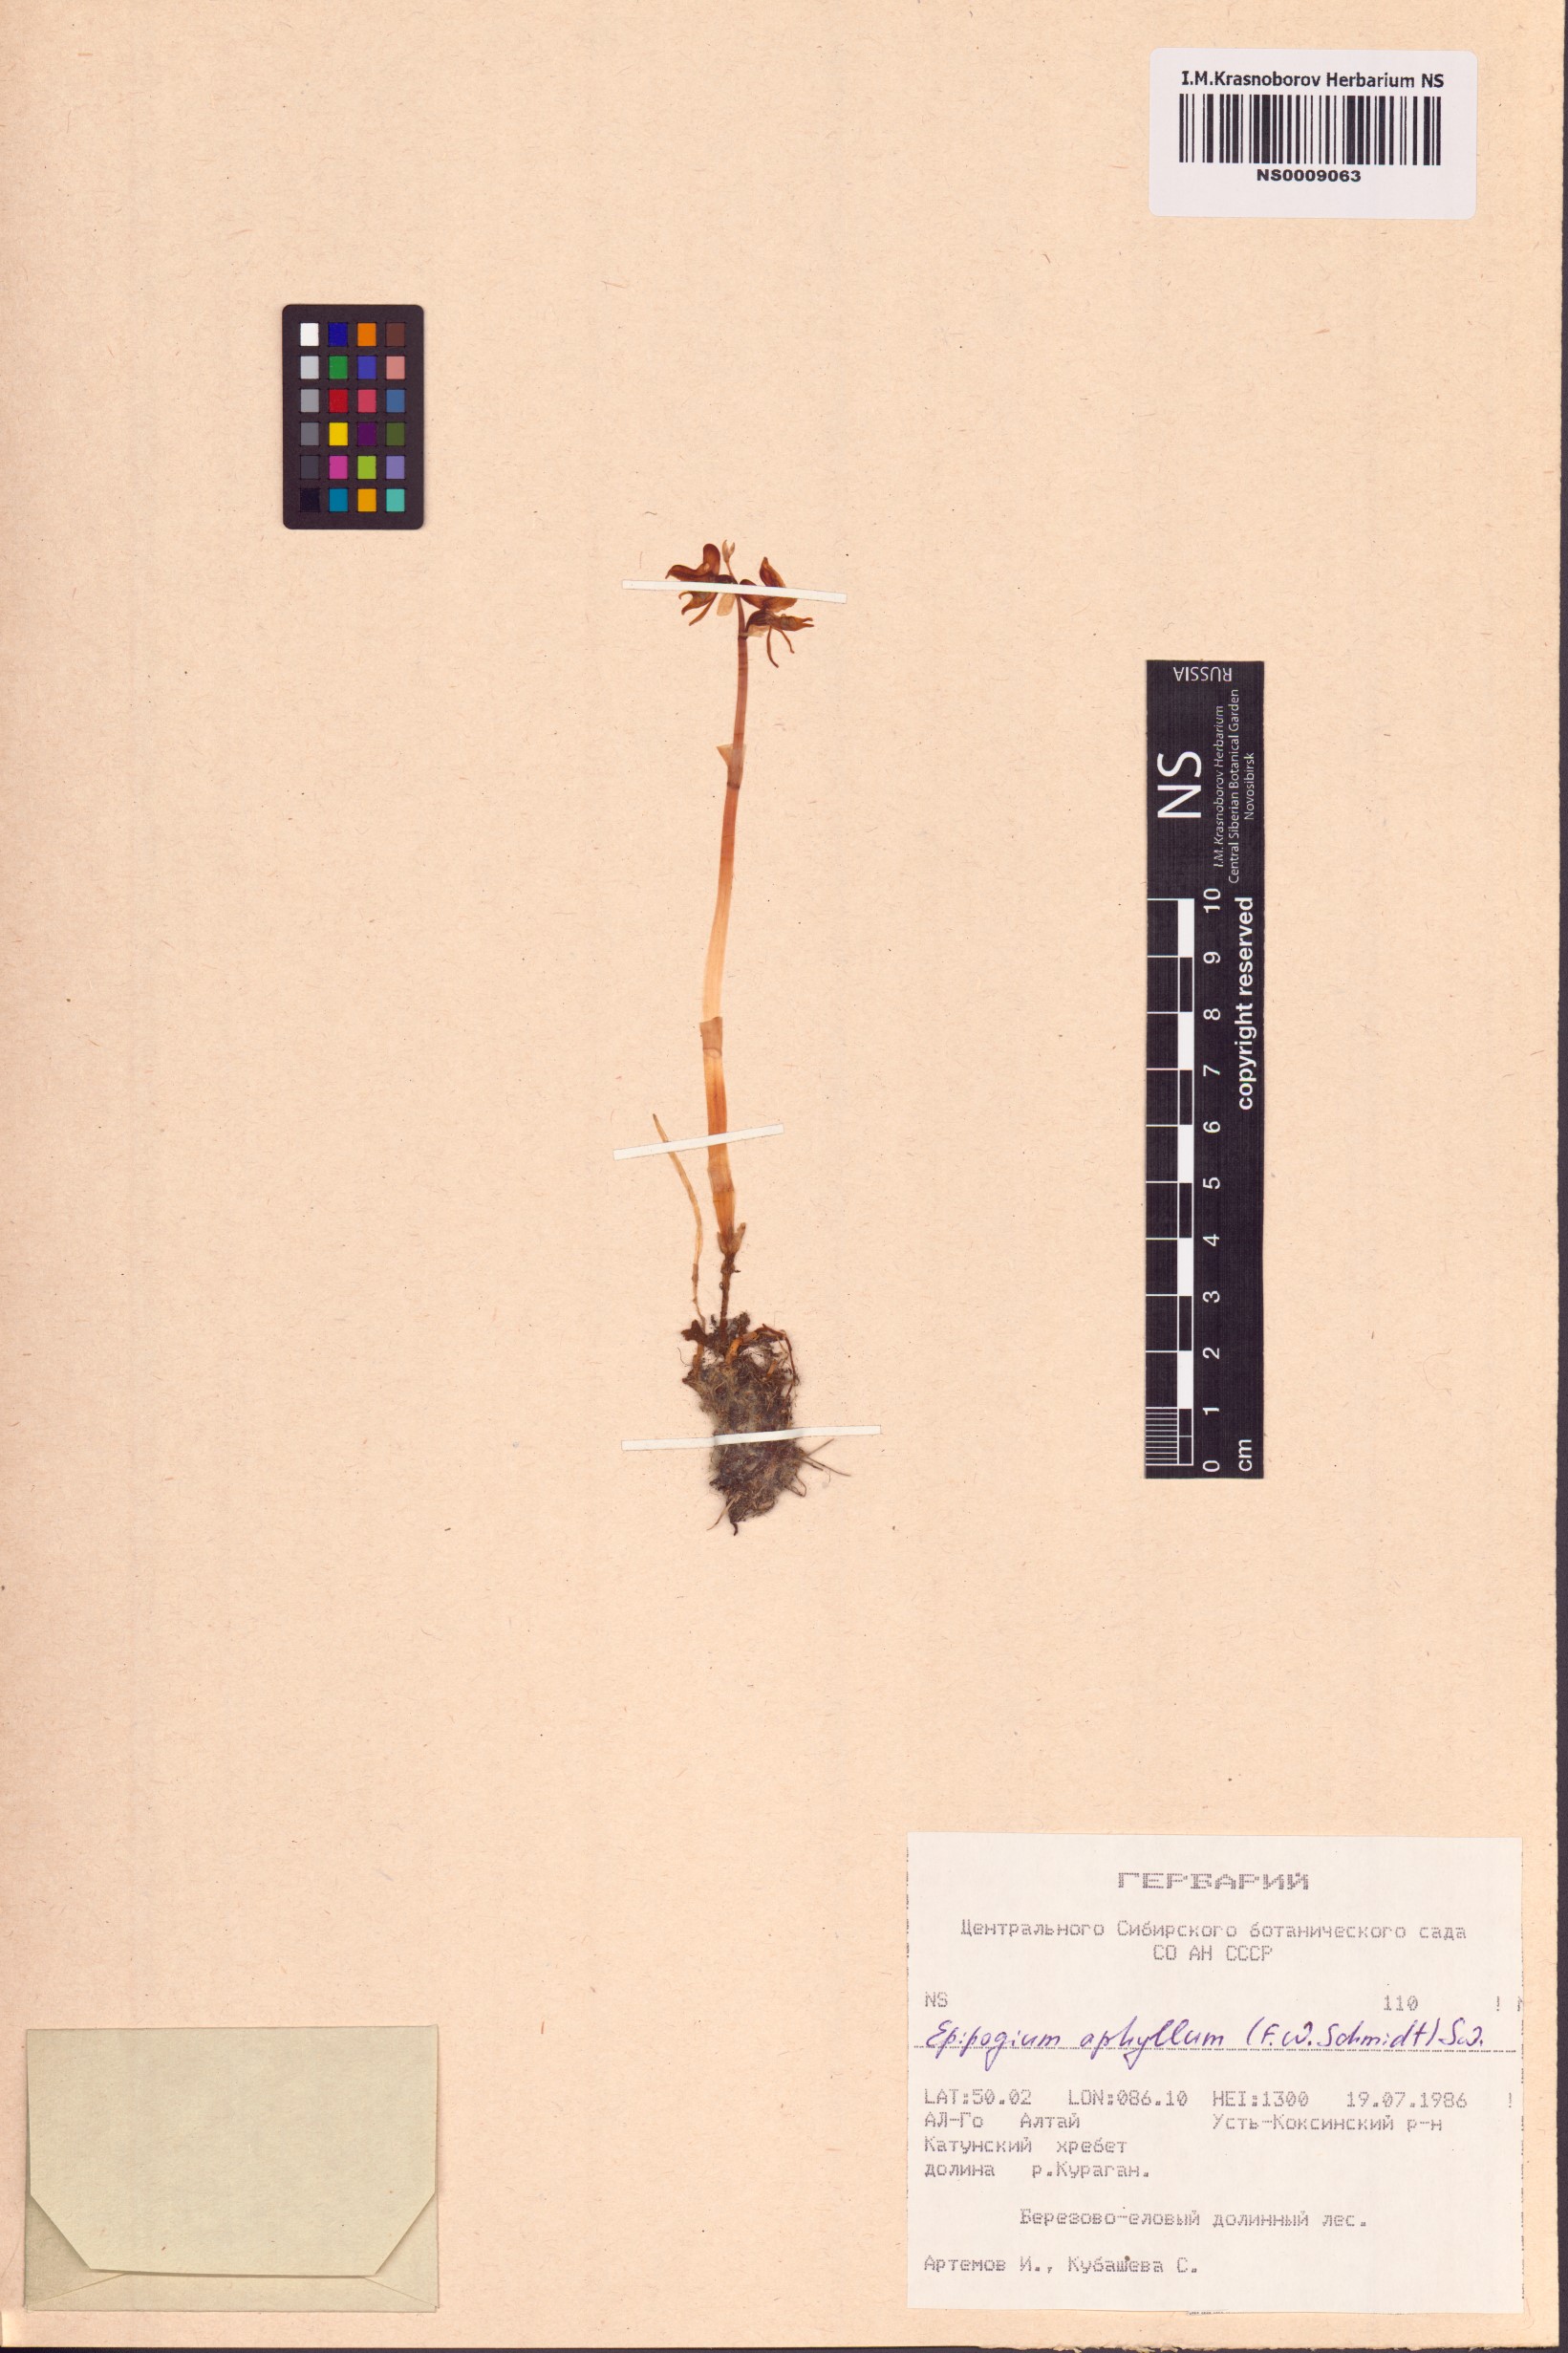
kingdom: Plantae
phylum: Tracheophyta
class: Liliopsida
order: Asparagales
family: Orchidaceae
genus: Epipogium
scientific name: Epipogium aphyllum
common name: Ghost orchid
